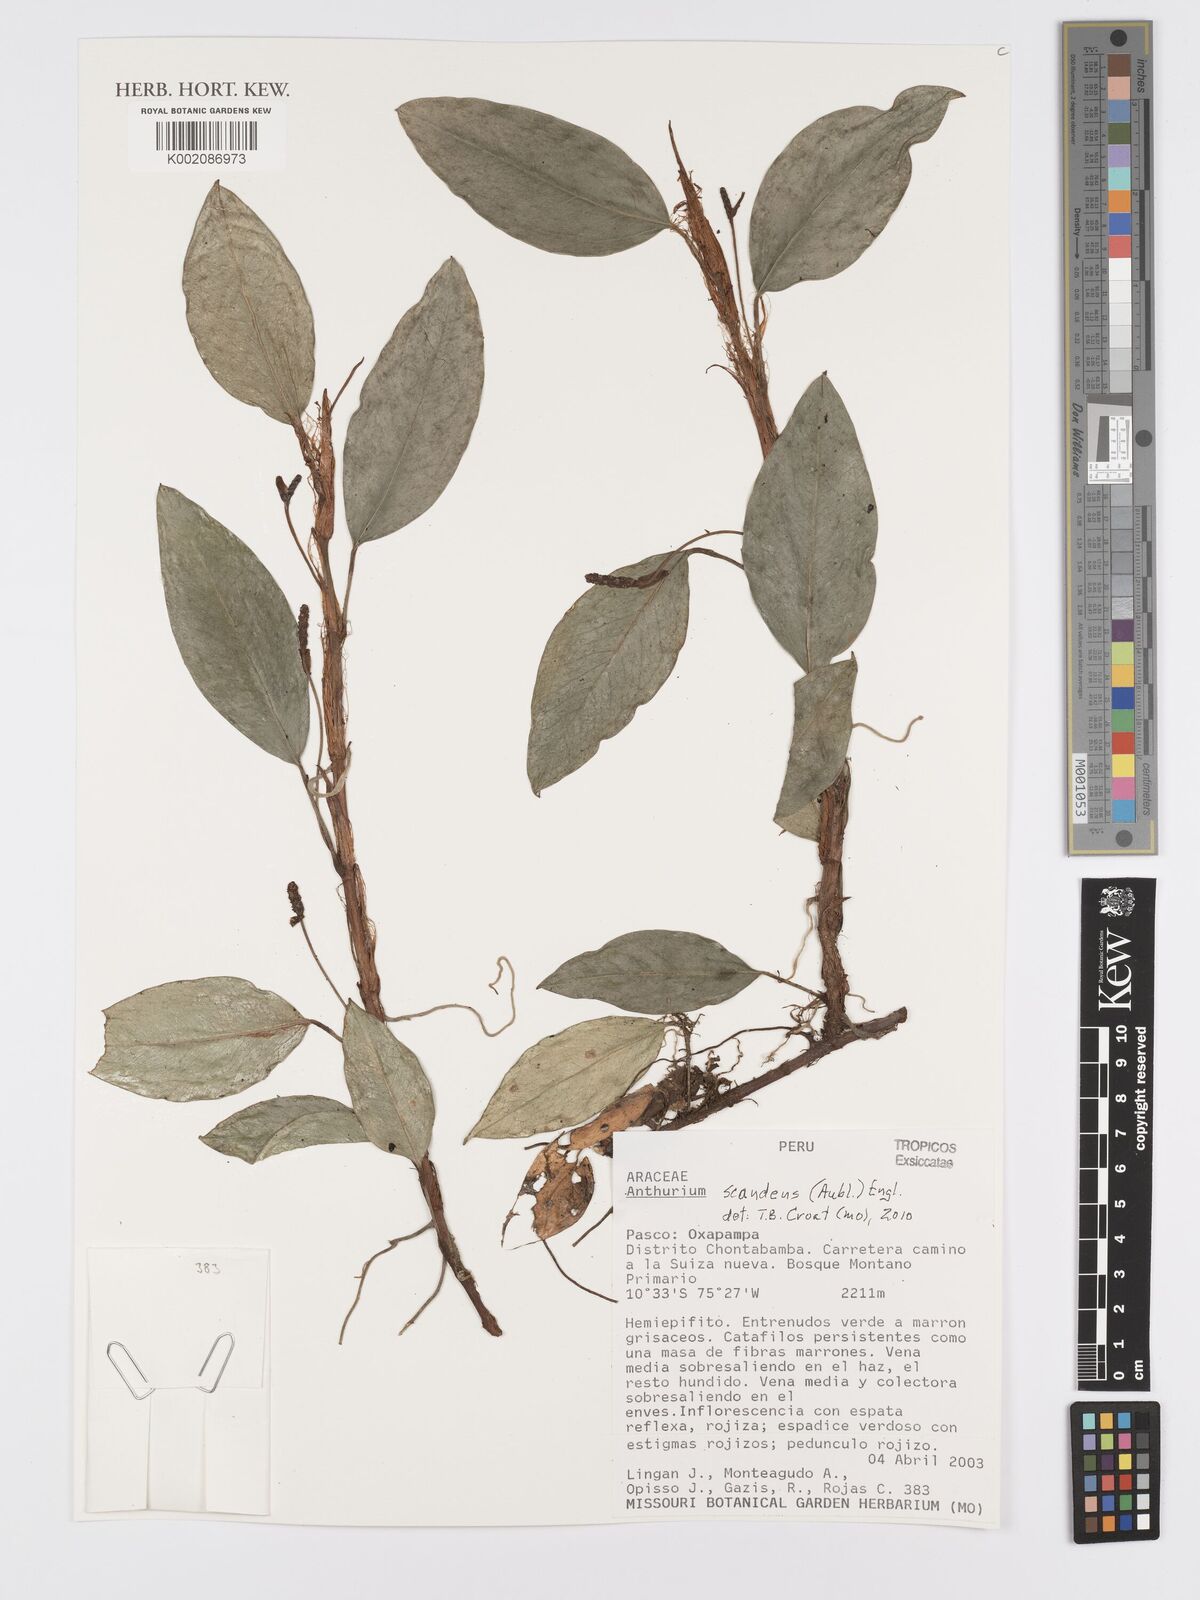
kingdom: Plantae
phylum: Tracheophyta
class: Liliopsida
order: Alismatales
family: Araceae
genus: Anthurium
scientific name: Anthurium scandens
